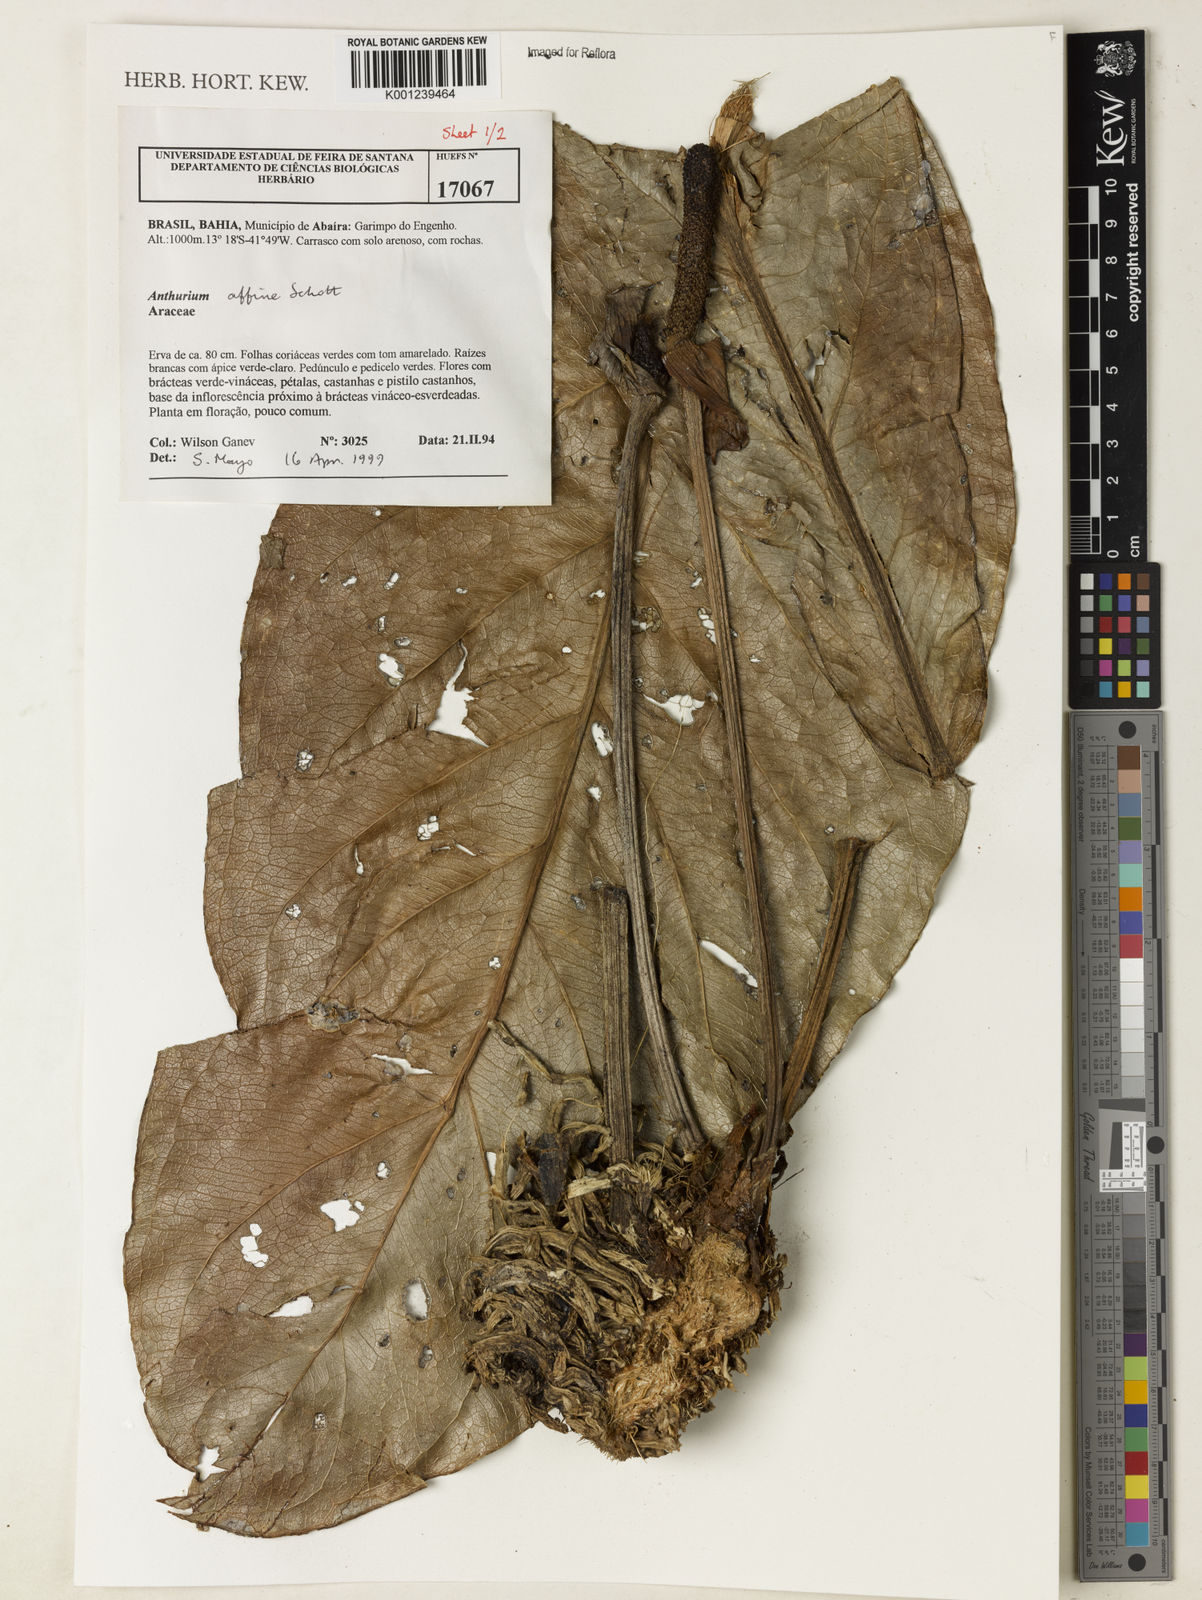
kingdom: Plantae
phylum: Tracheophyta
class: Liliopsida
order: Alismatales
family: Araceae
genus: Anthurium
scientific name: Anthurium affine
